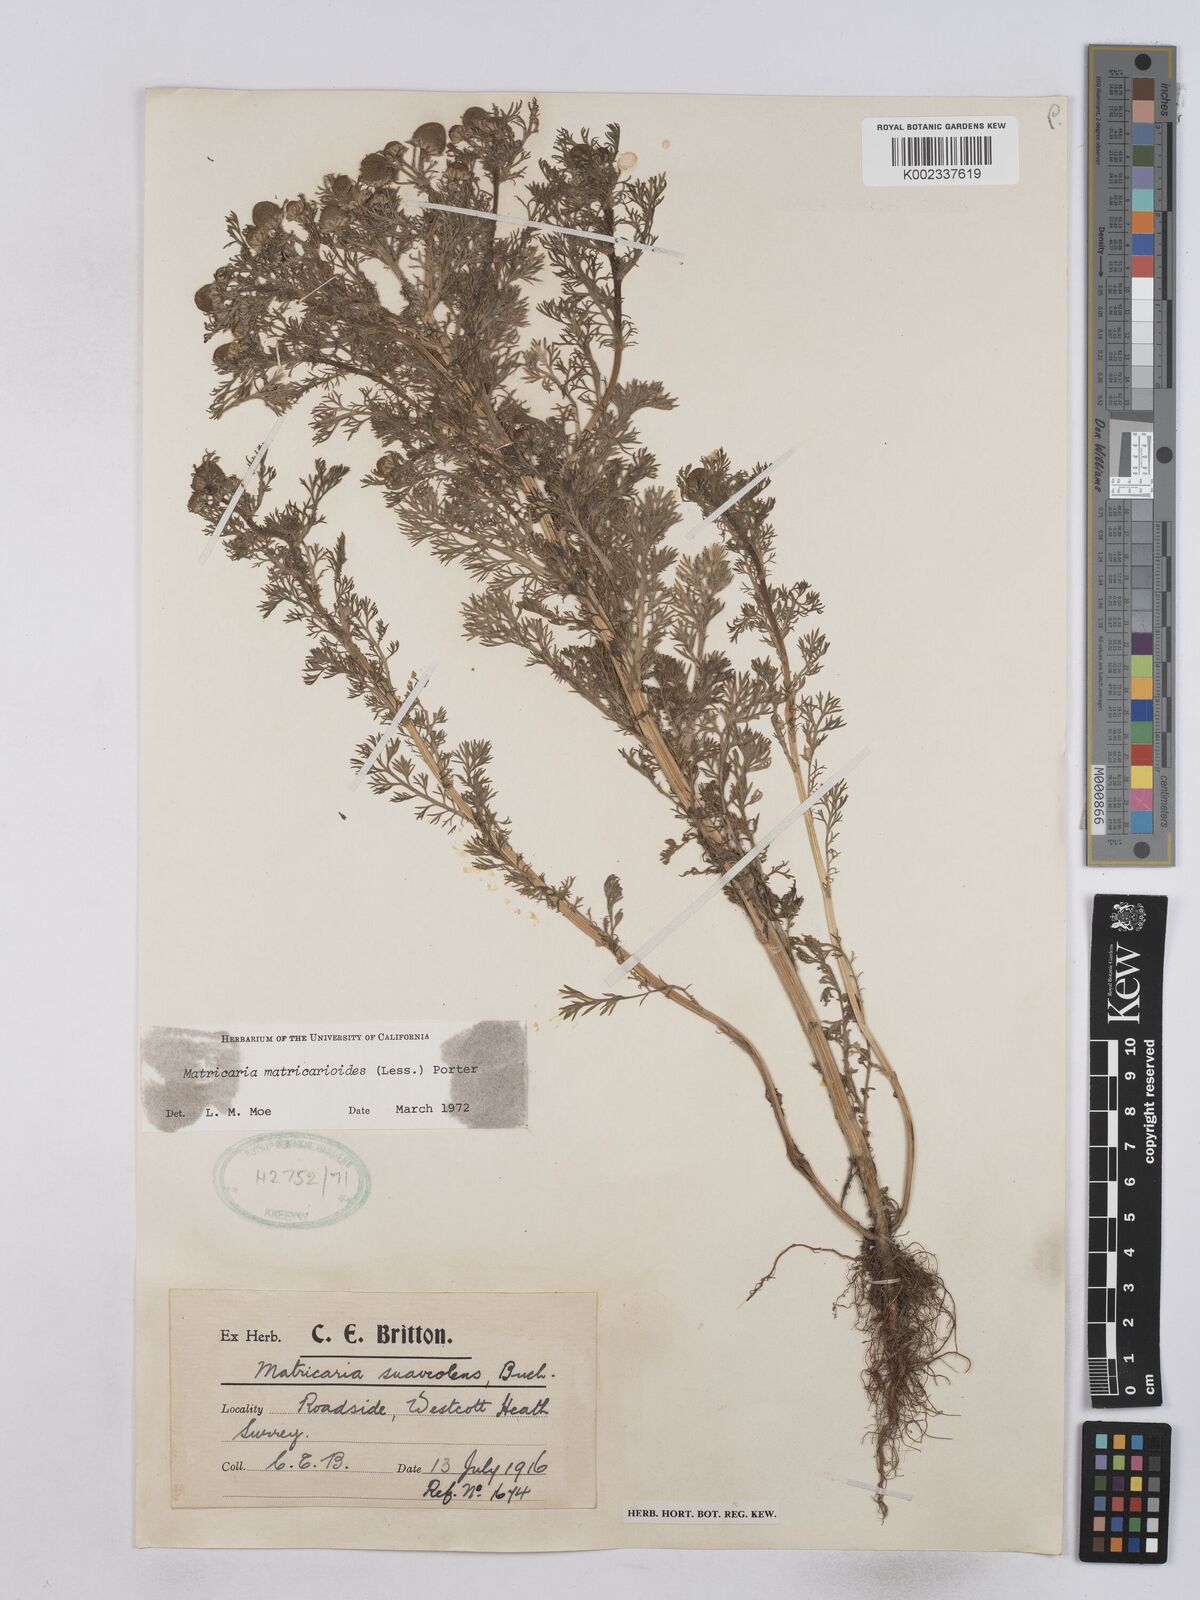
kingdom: Plantae
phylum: Tracheophyta
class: Magnoliopsida
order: Asterales
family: Asteraceae
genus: Matricaria
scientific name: Matricaria discoidea
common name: Disc mayweed
